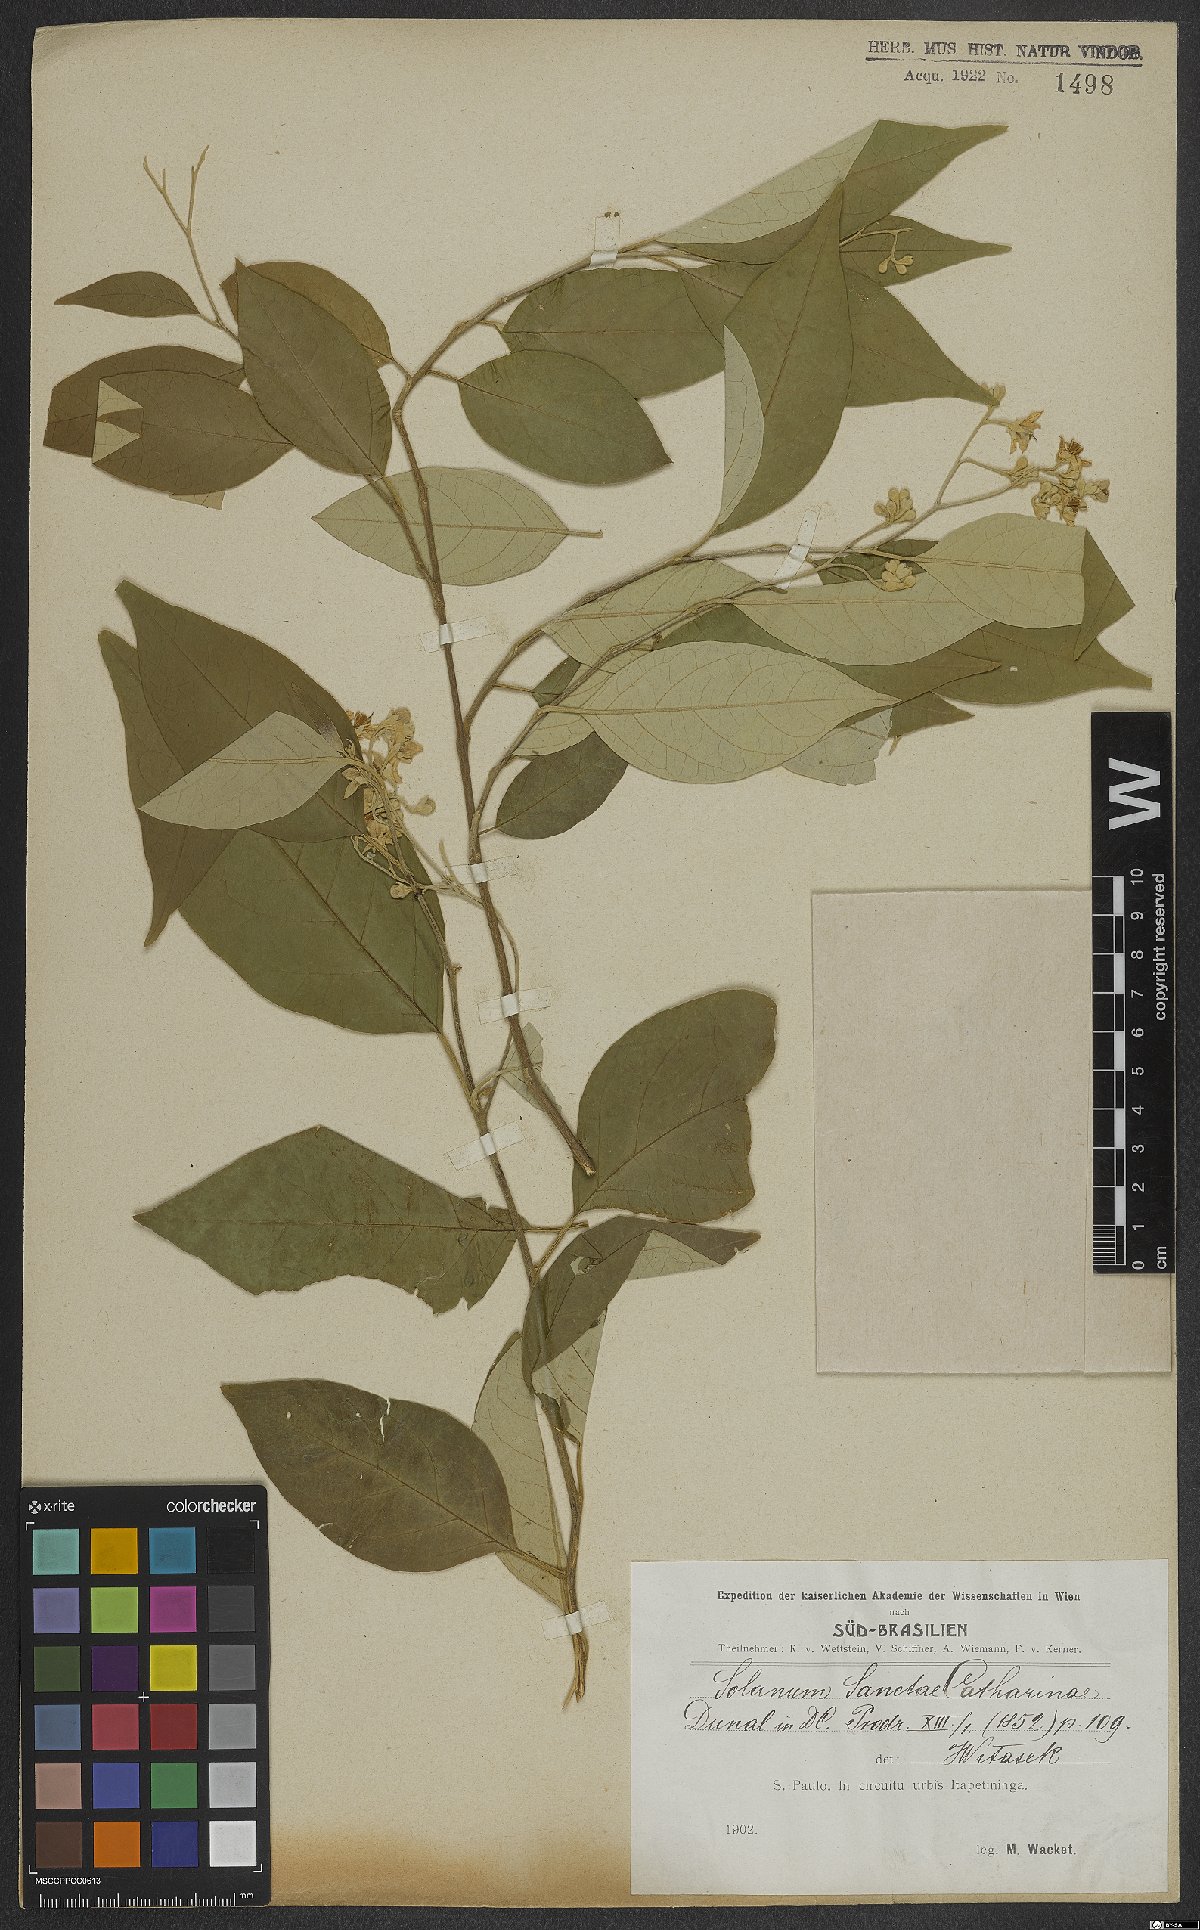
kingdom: Plantae
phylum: Tracheophyta
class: Magnoliopsida
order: Solanales
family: Solanaceae
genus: Solanum
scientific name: Solanum sanctae-catharinae
